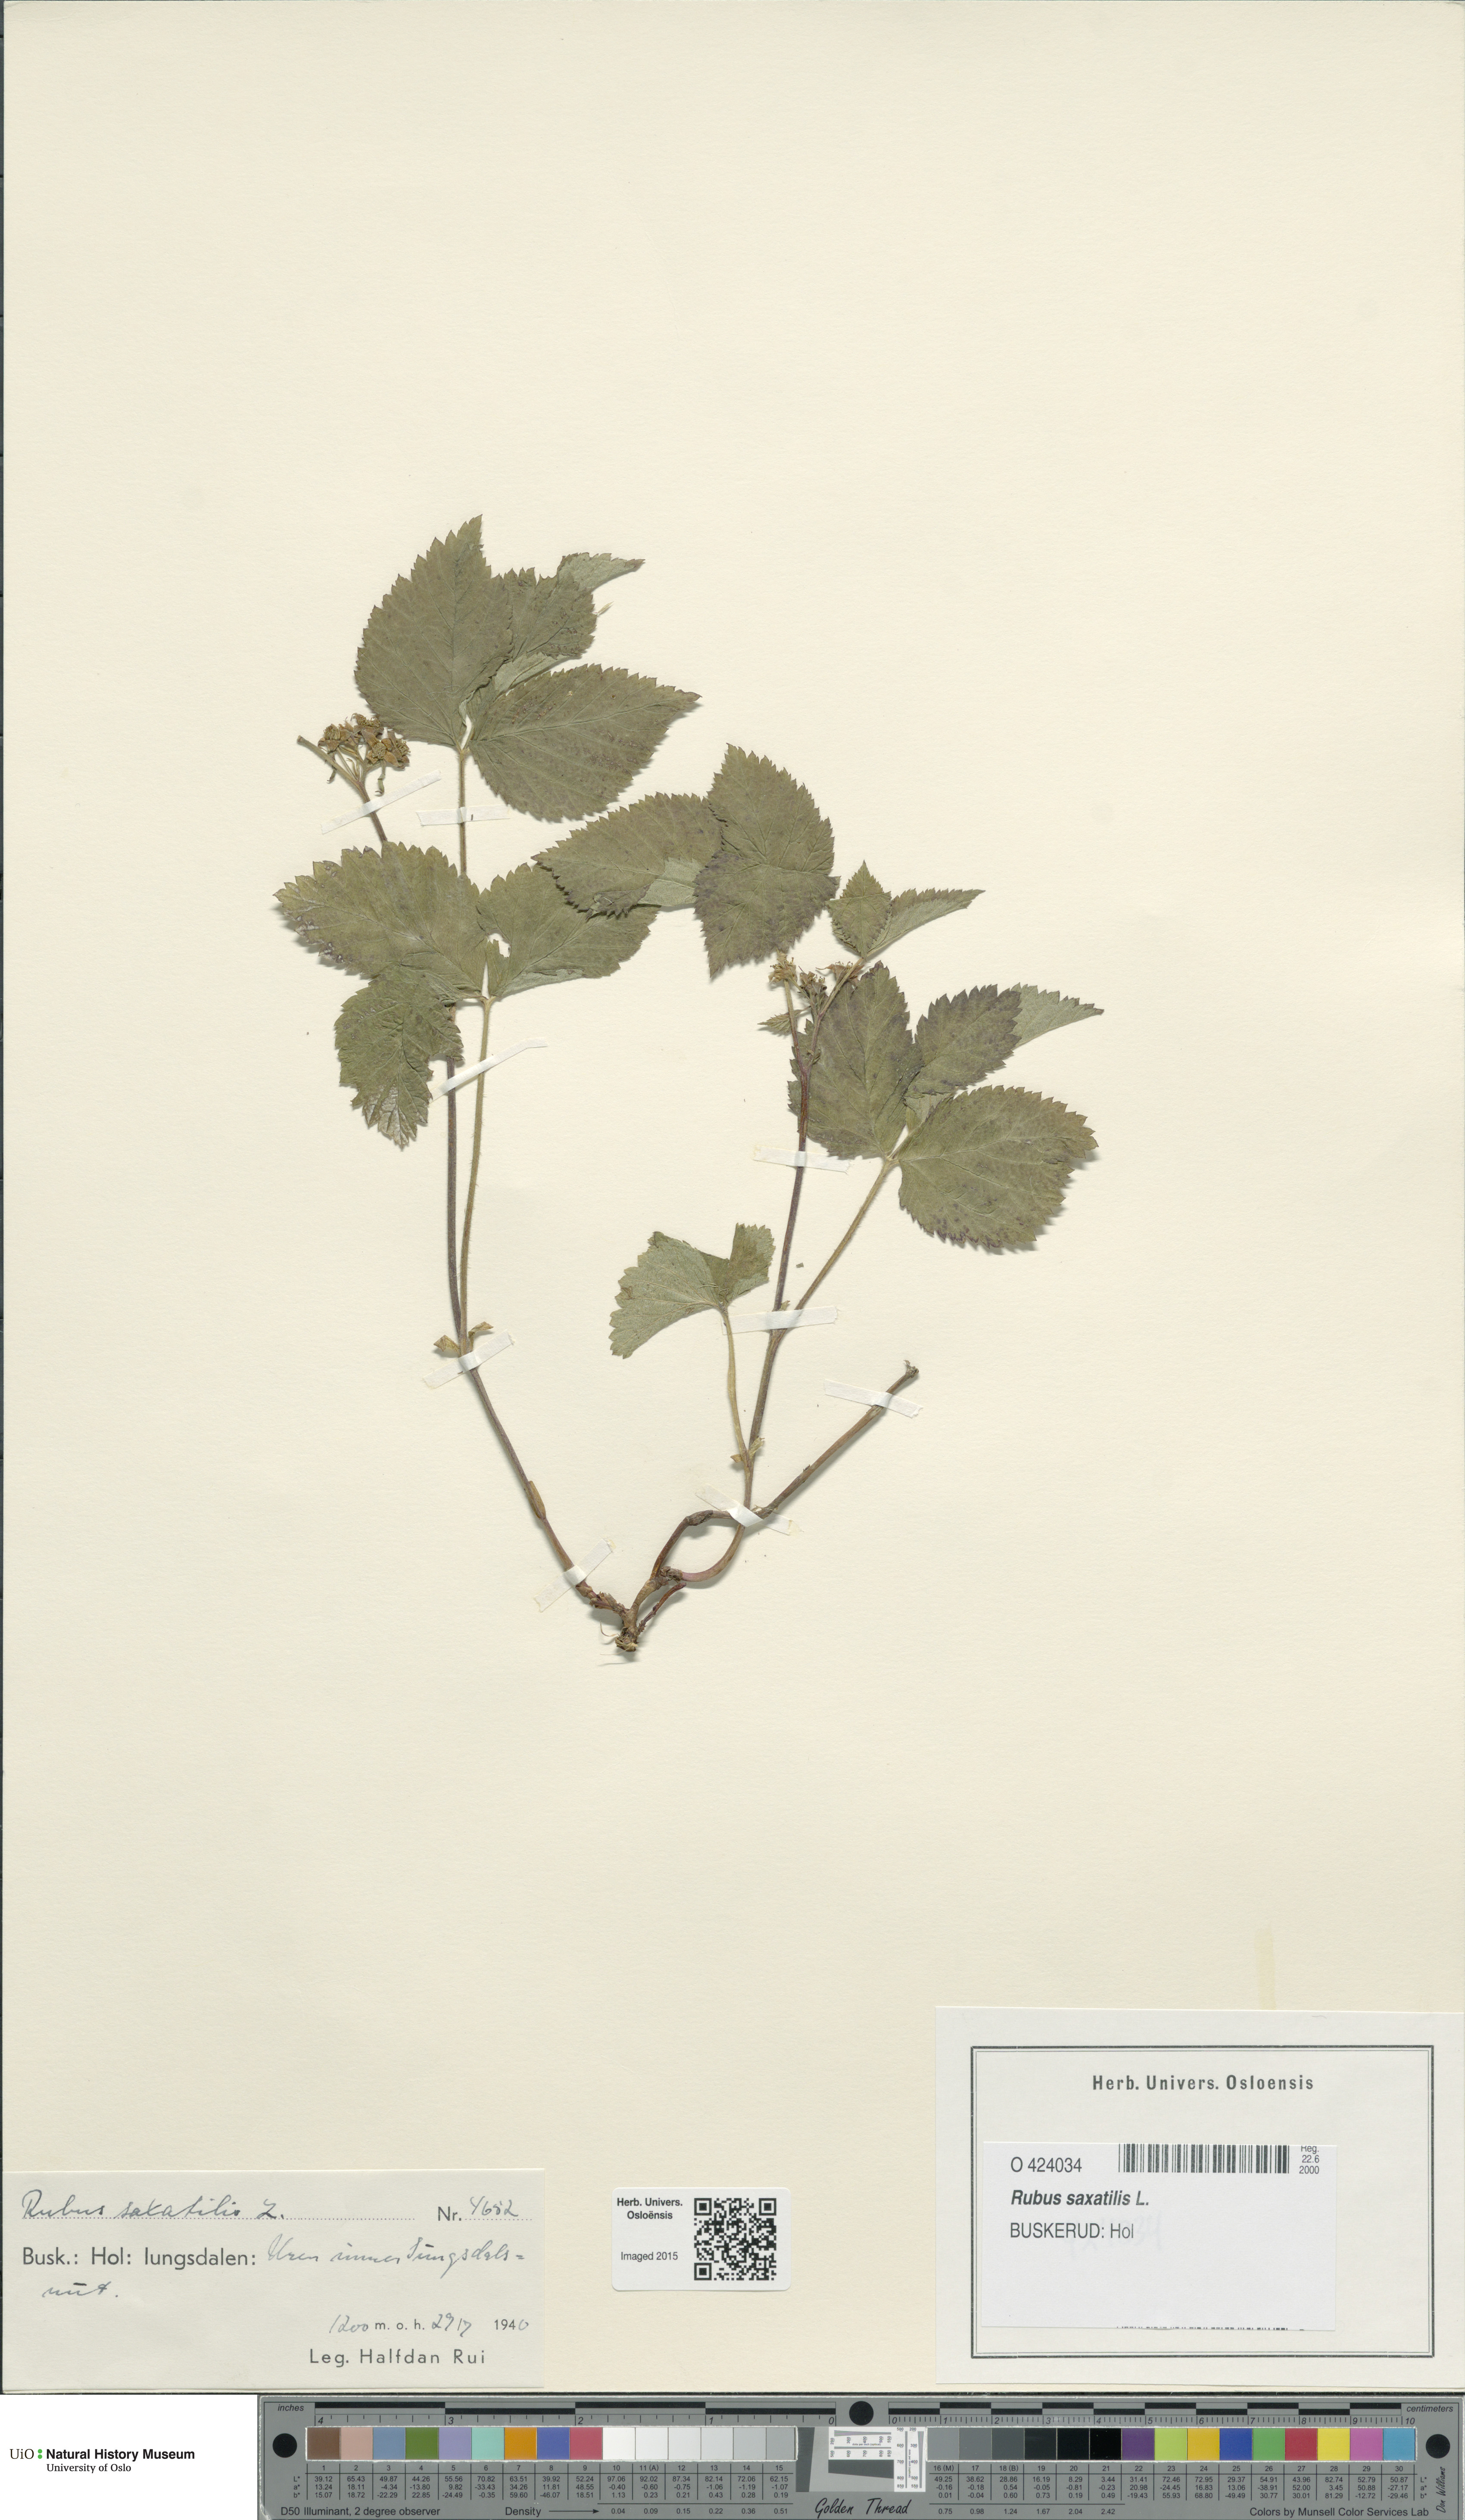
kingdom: Plantae
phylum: Tracheophyta
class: Magnoliopsida
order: Rosales
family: Rosaceae
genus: Rubus
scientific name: Rubus saxatilis
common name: Stone bramble
